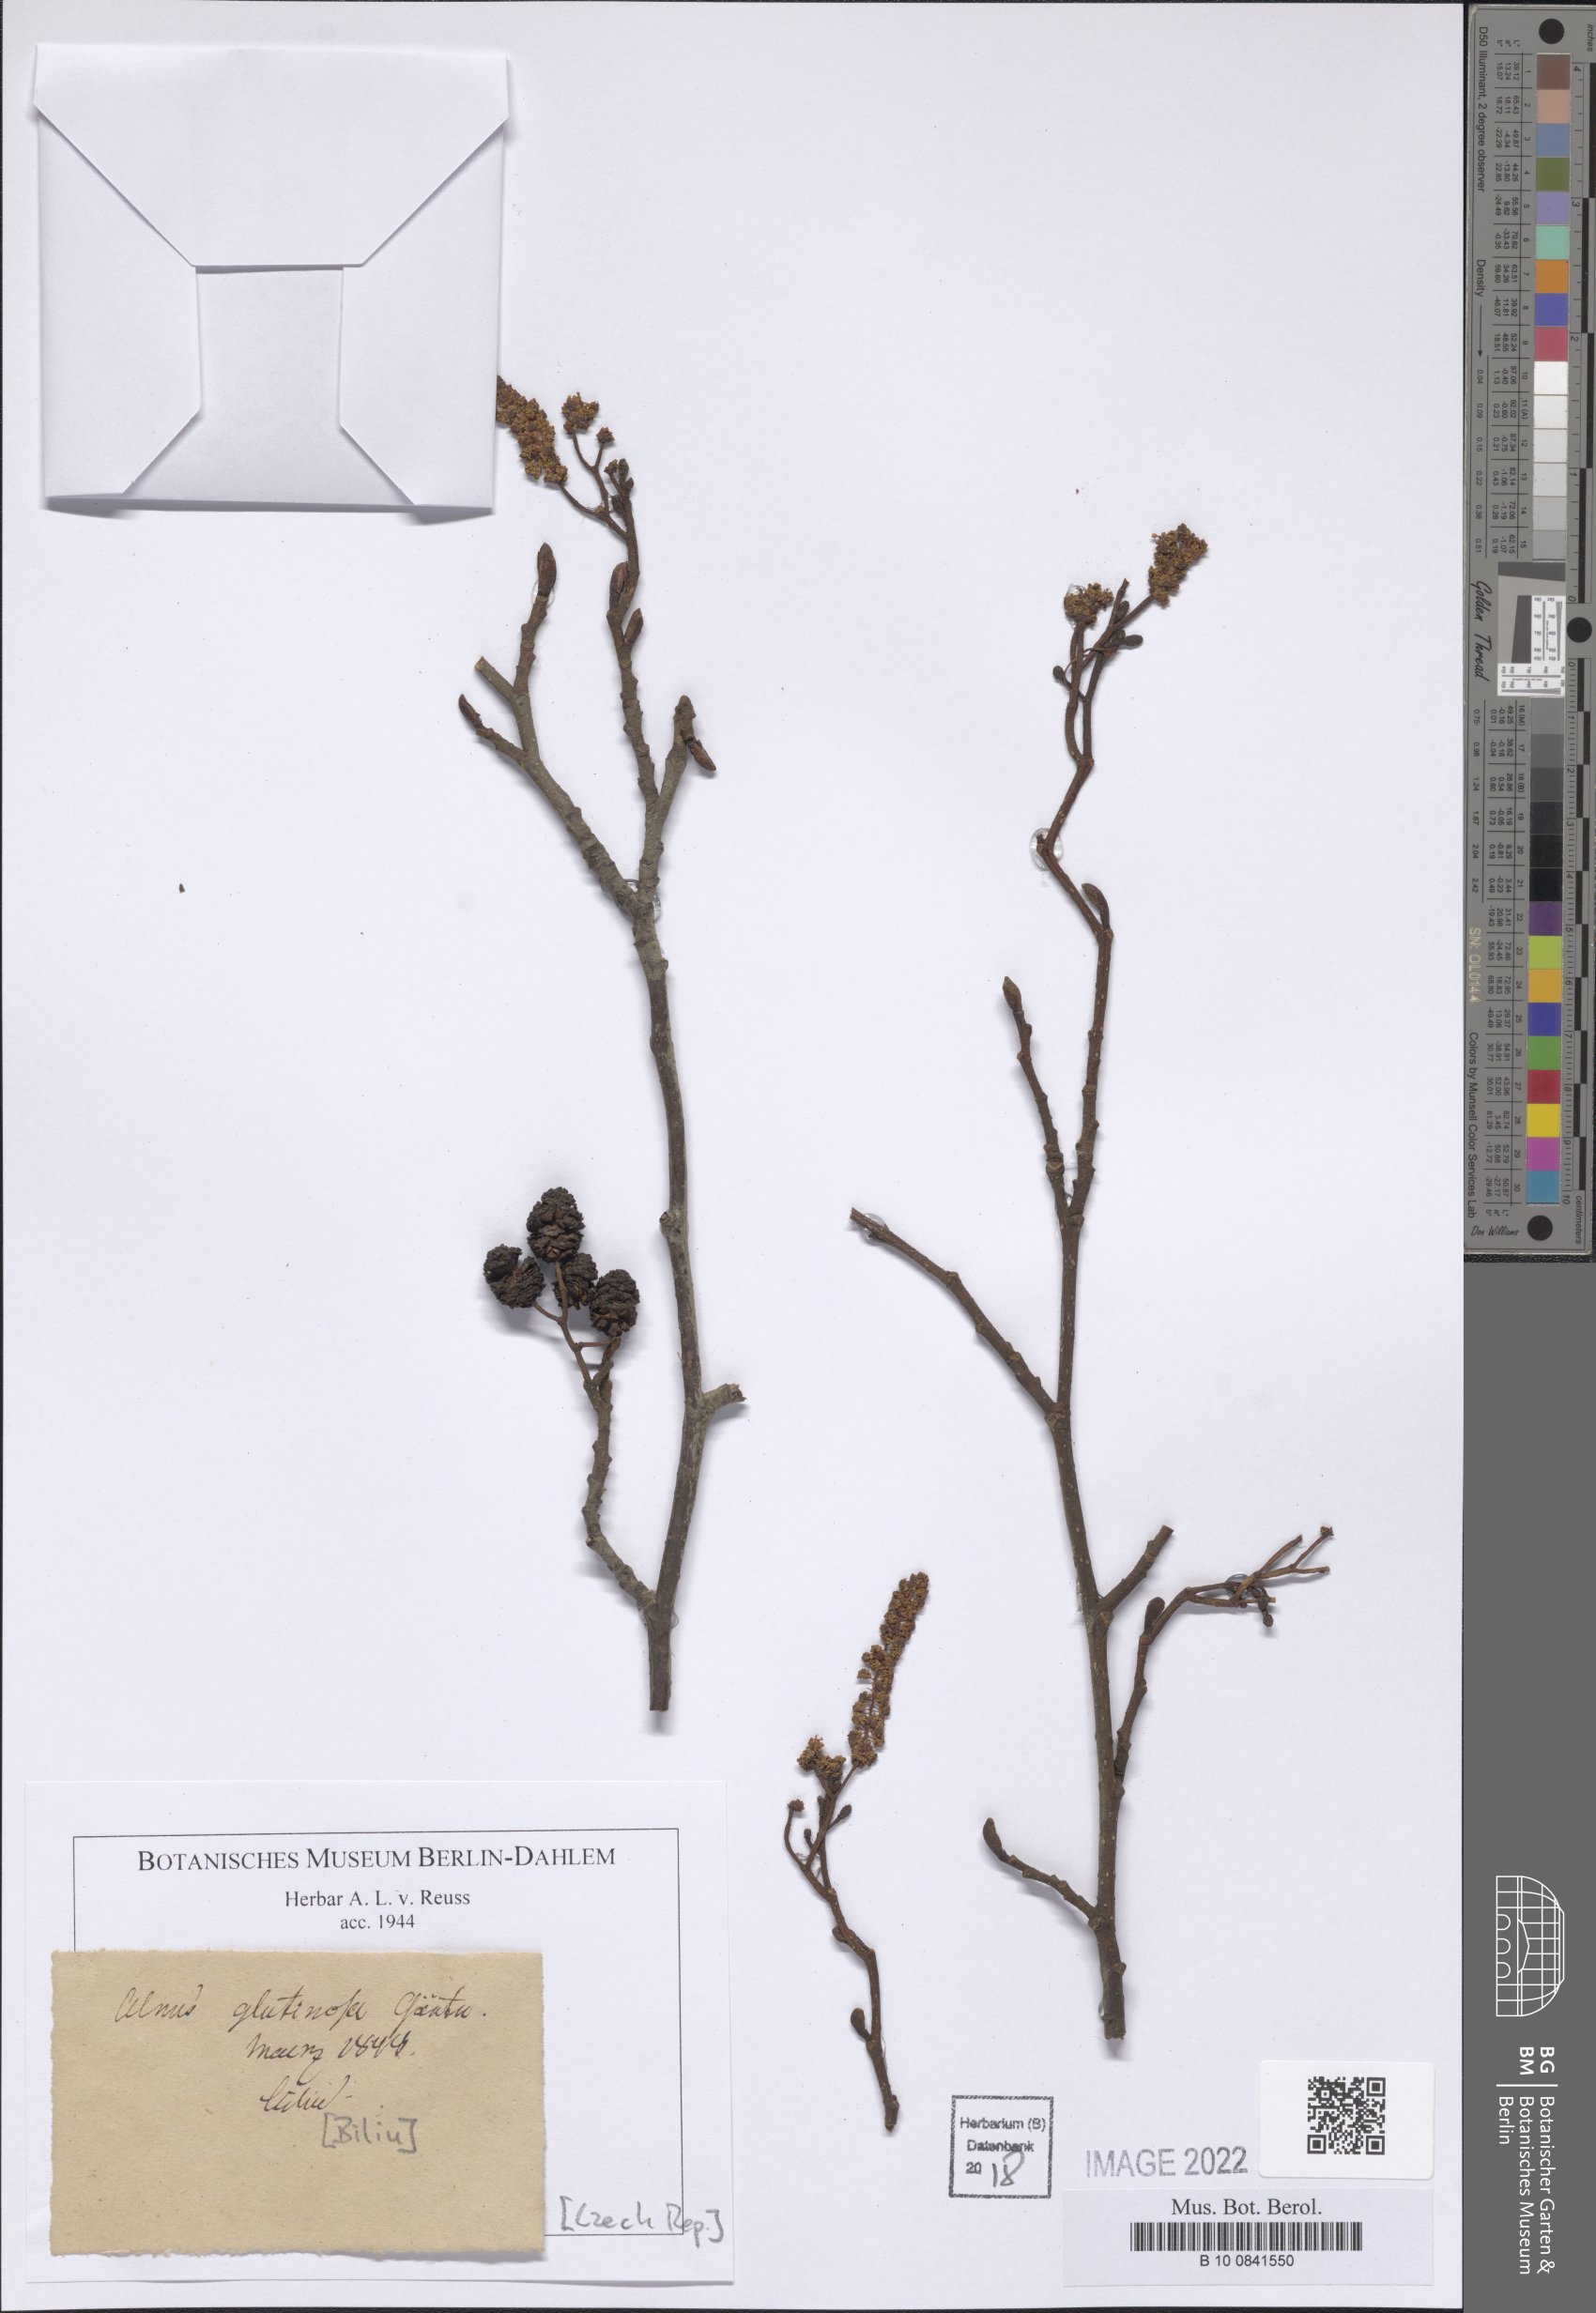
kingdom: Plantae
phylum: Tracheophyta
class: Magnoliopsida
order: Fagales
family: Betulaceae
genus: Alnus
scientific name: Alnus glutinosa
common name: Black alder
